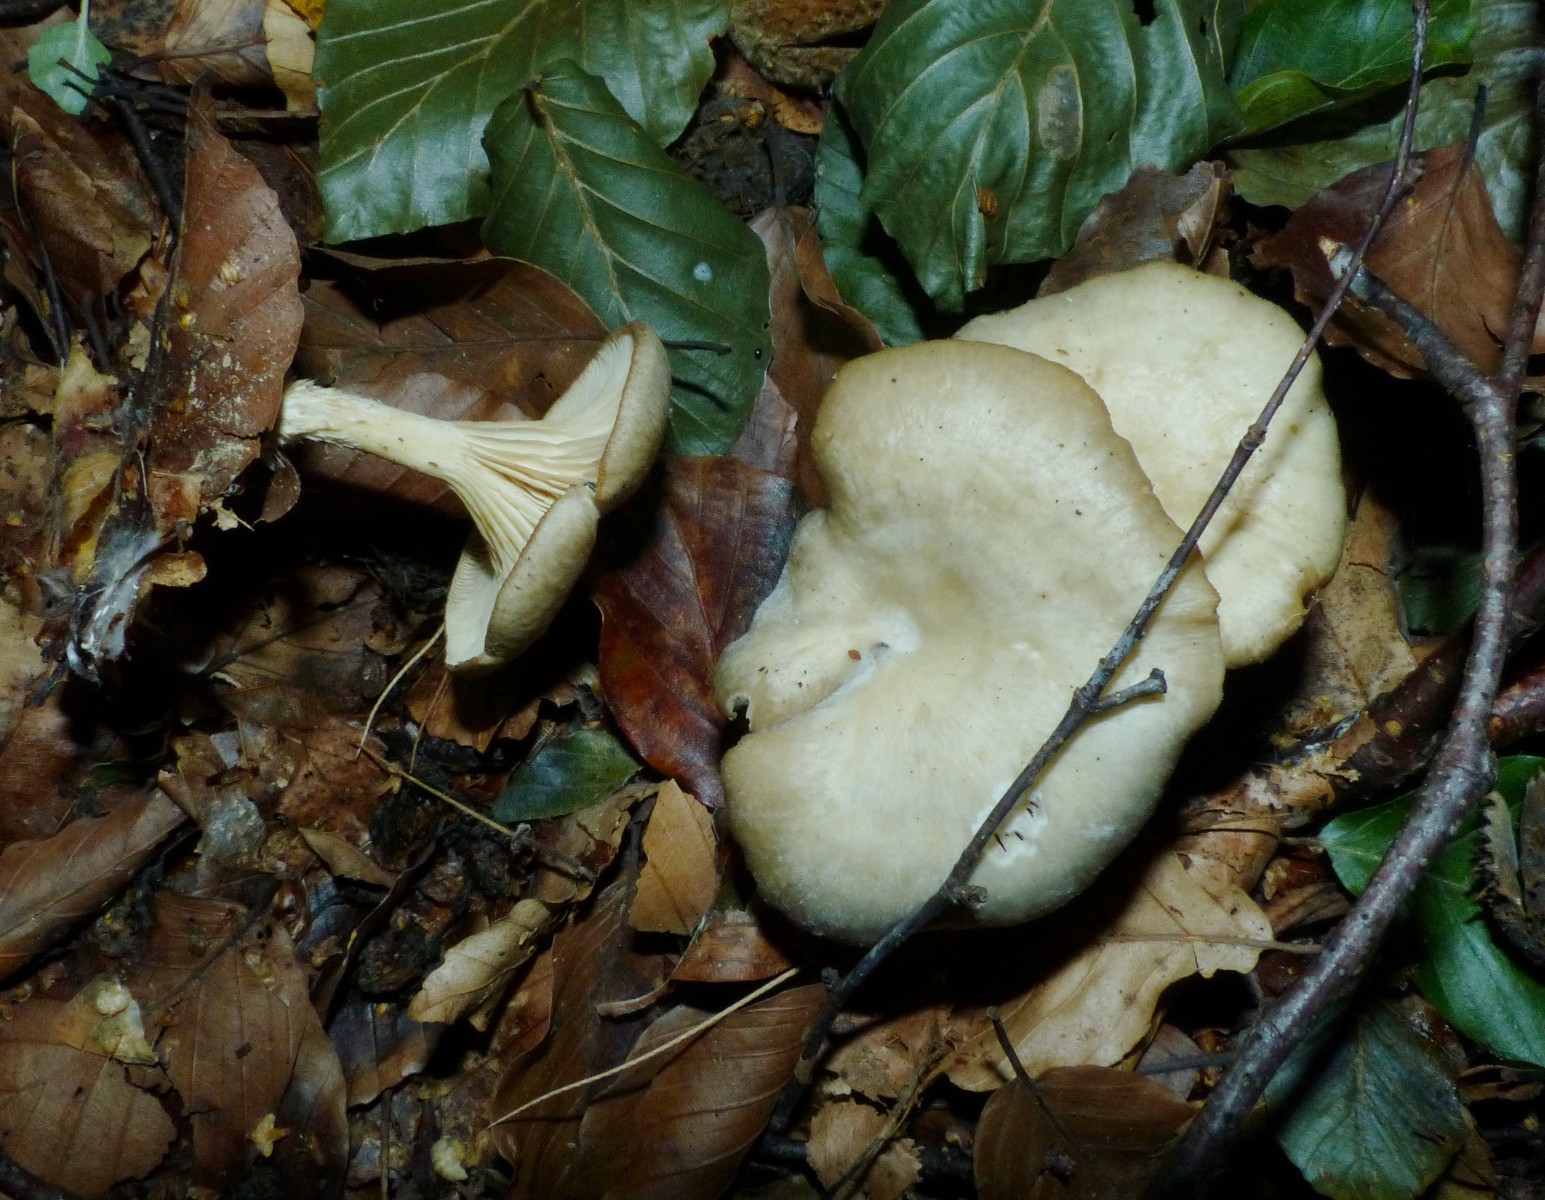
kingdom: Fungi
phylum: Basidiomycota
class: Agaricomycetes
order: Agaricales
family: Tricholomataceae
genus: Clitocybe
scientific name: Clitocybe phaeophthalma
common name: stinkende tragthat
